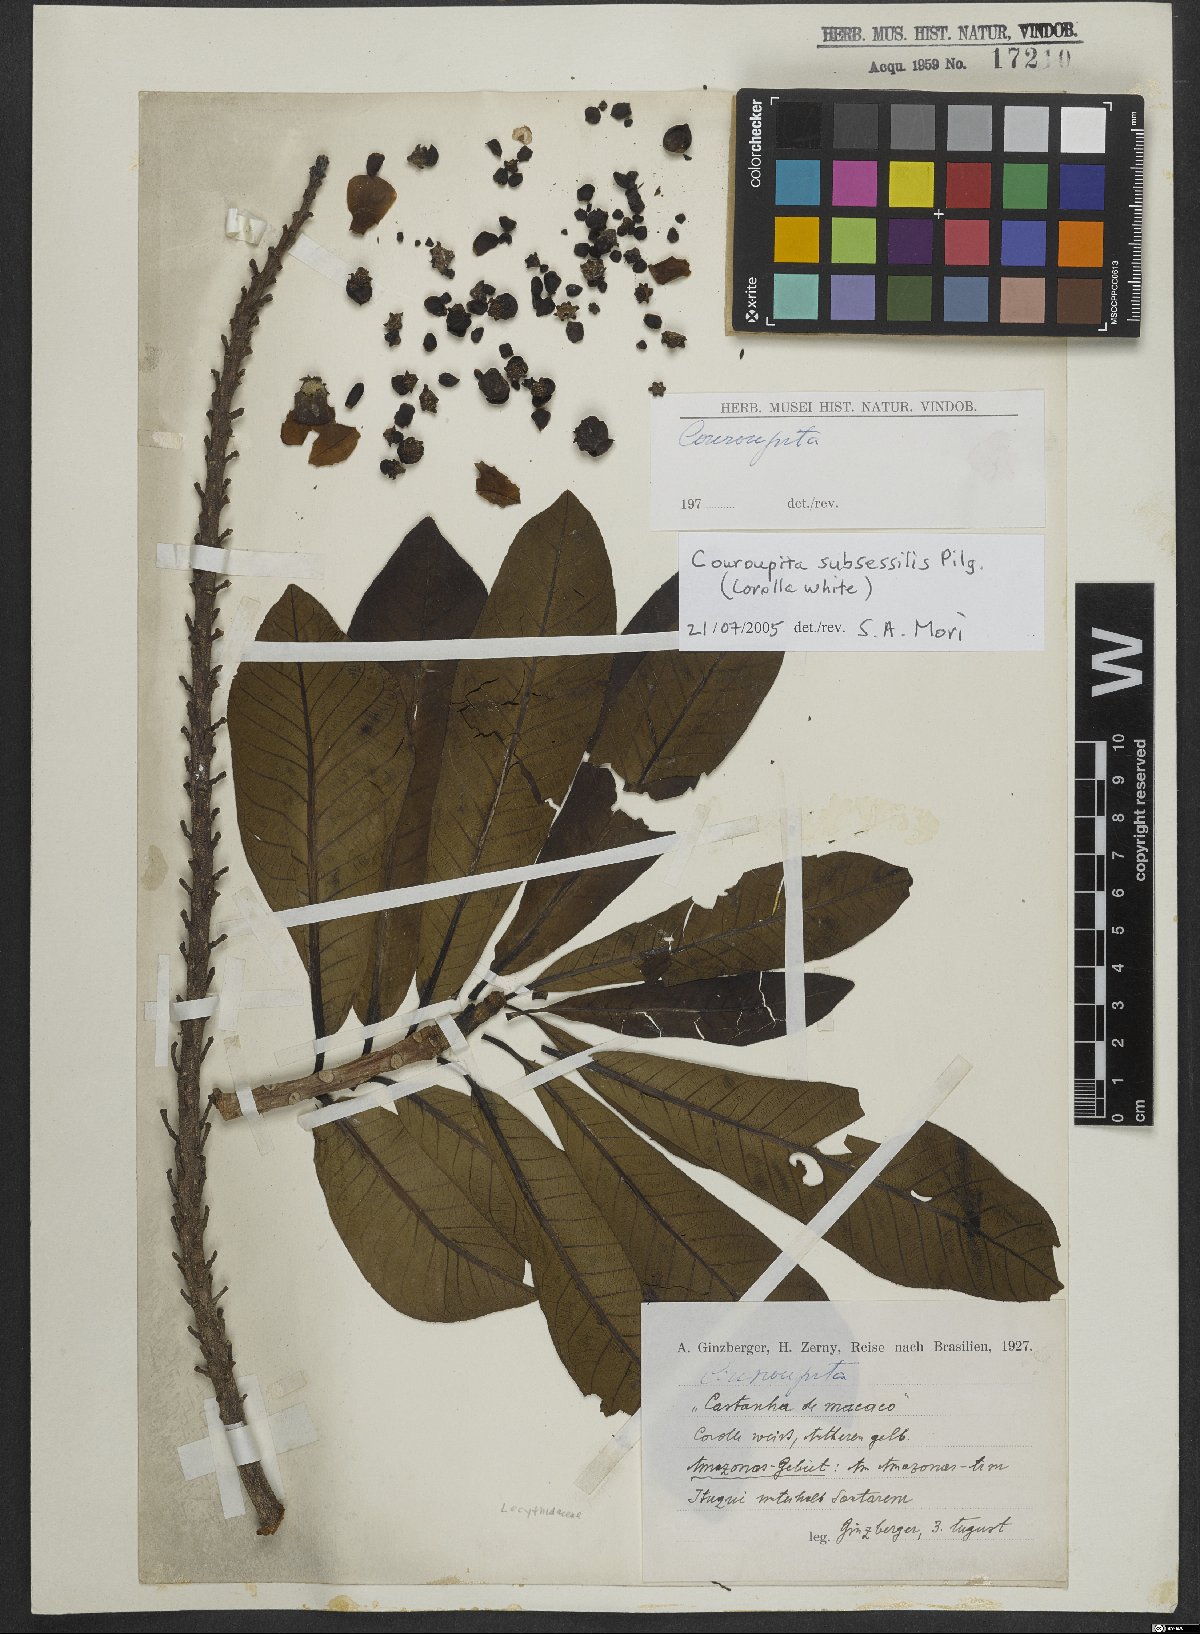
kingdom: Plantae
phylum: Tracheophyta
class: Magnoliopsida
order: Ericales
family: Lecythidaceae
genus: Couroupita
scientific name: Couroupita subsessilis
